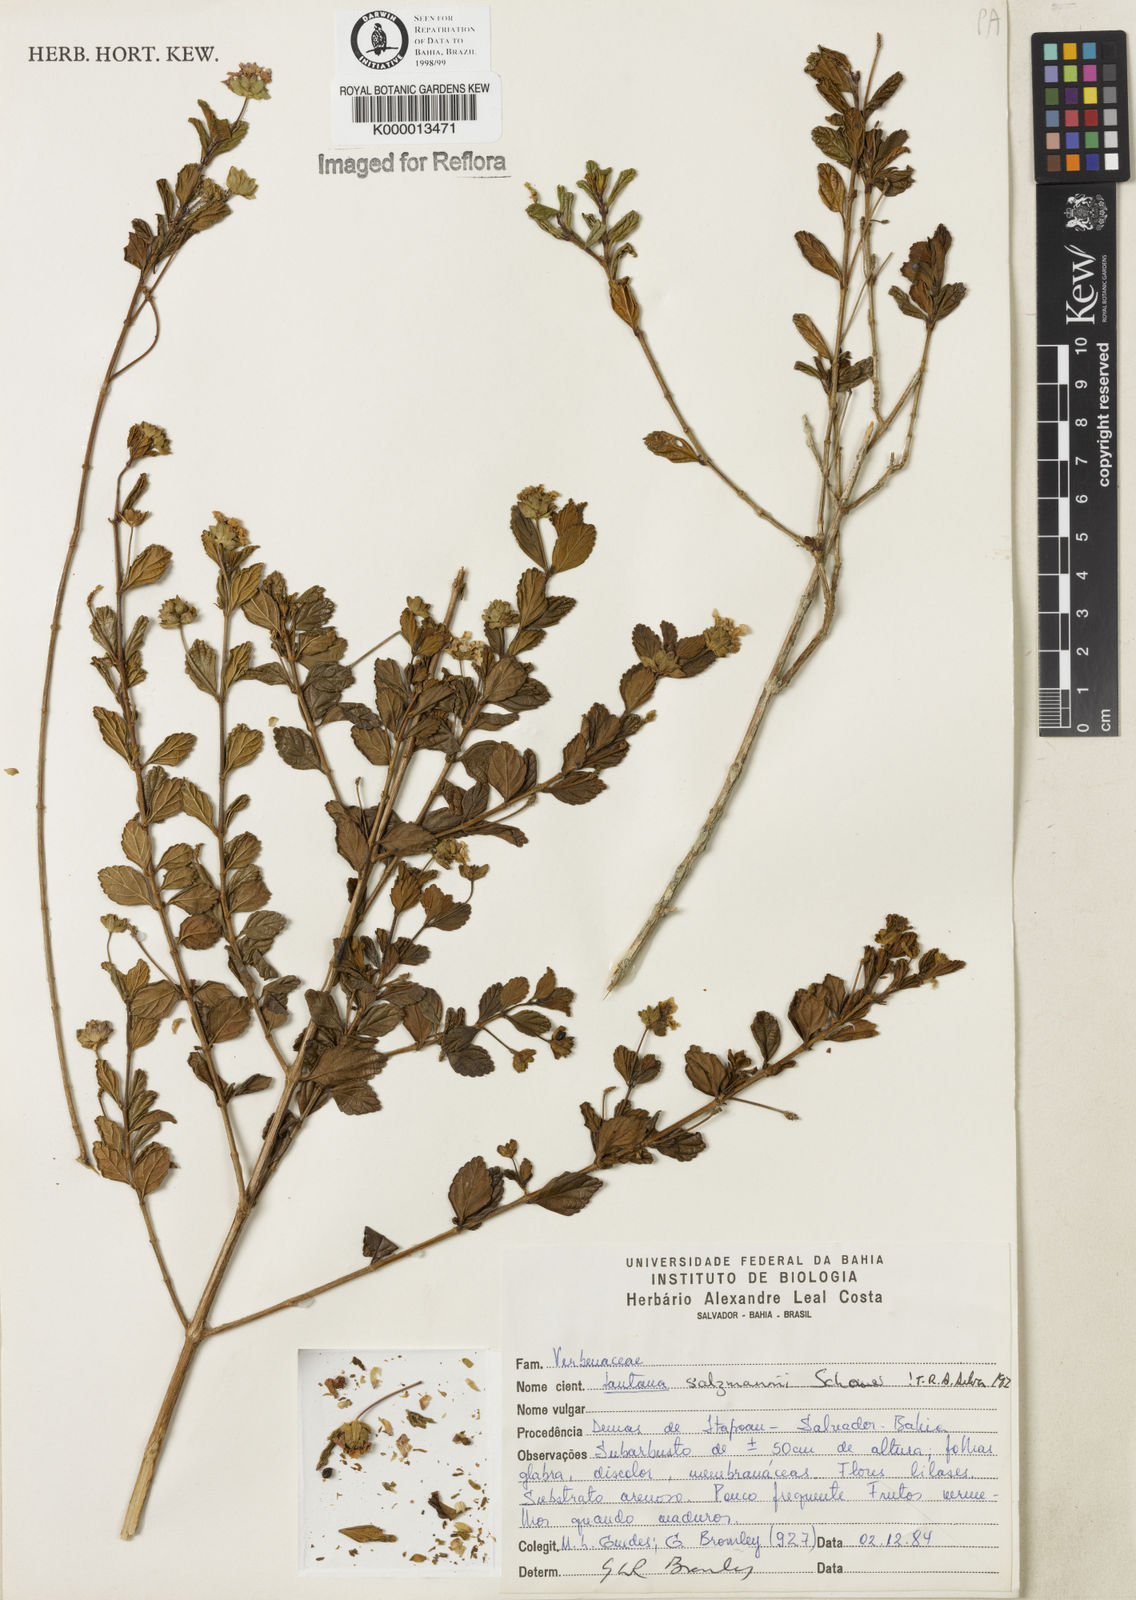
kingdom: Plantae
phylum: Tracheophyta
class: Magnoliopsida
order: Lamiales
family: Verbenaceae
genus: Lantana
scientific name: Lantana salzmannii
